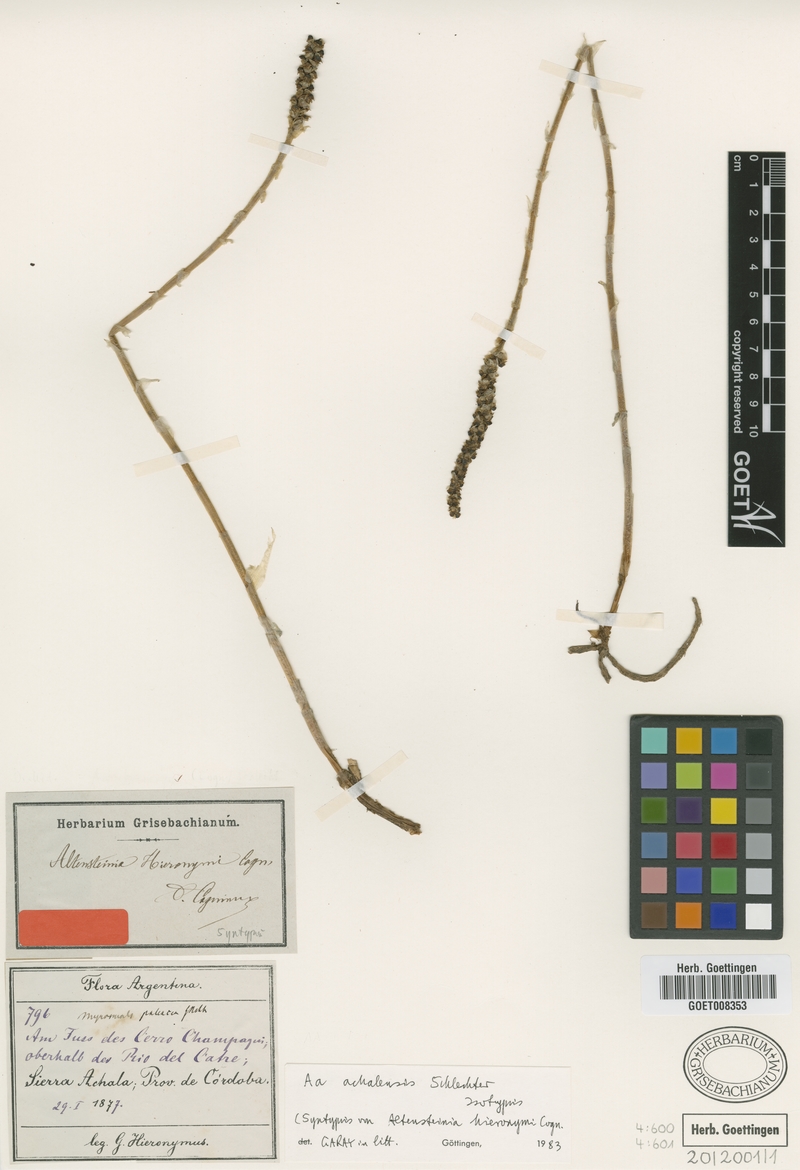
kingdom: Plantae
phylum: Tracheophyta
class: Liliopsida
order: Asparagales
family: Orchidaceae
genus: Aa
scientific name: Aa achalensis
